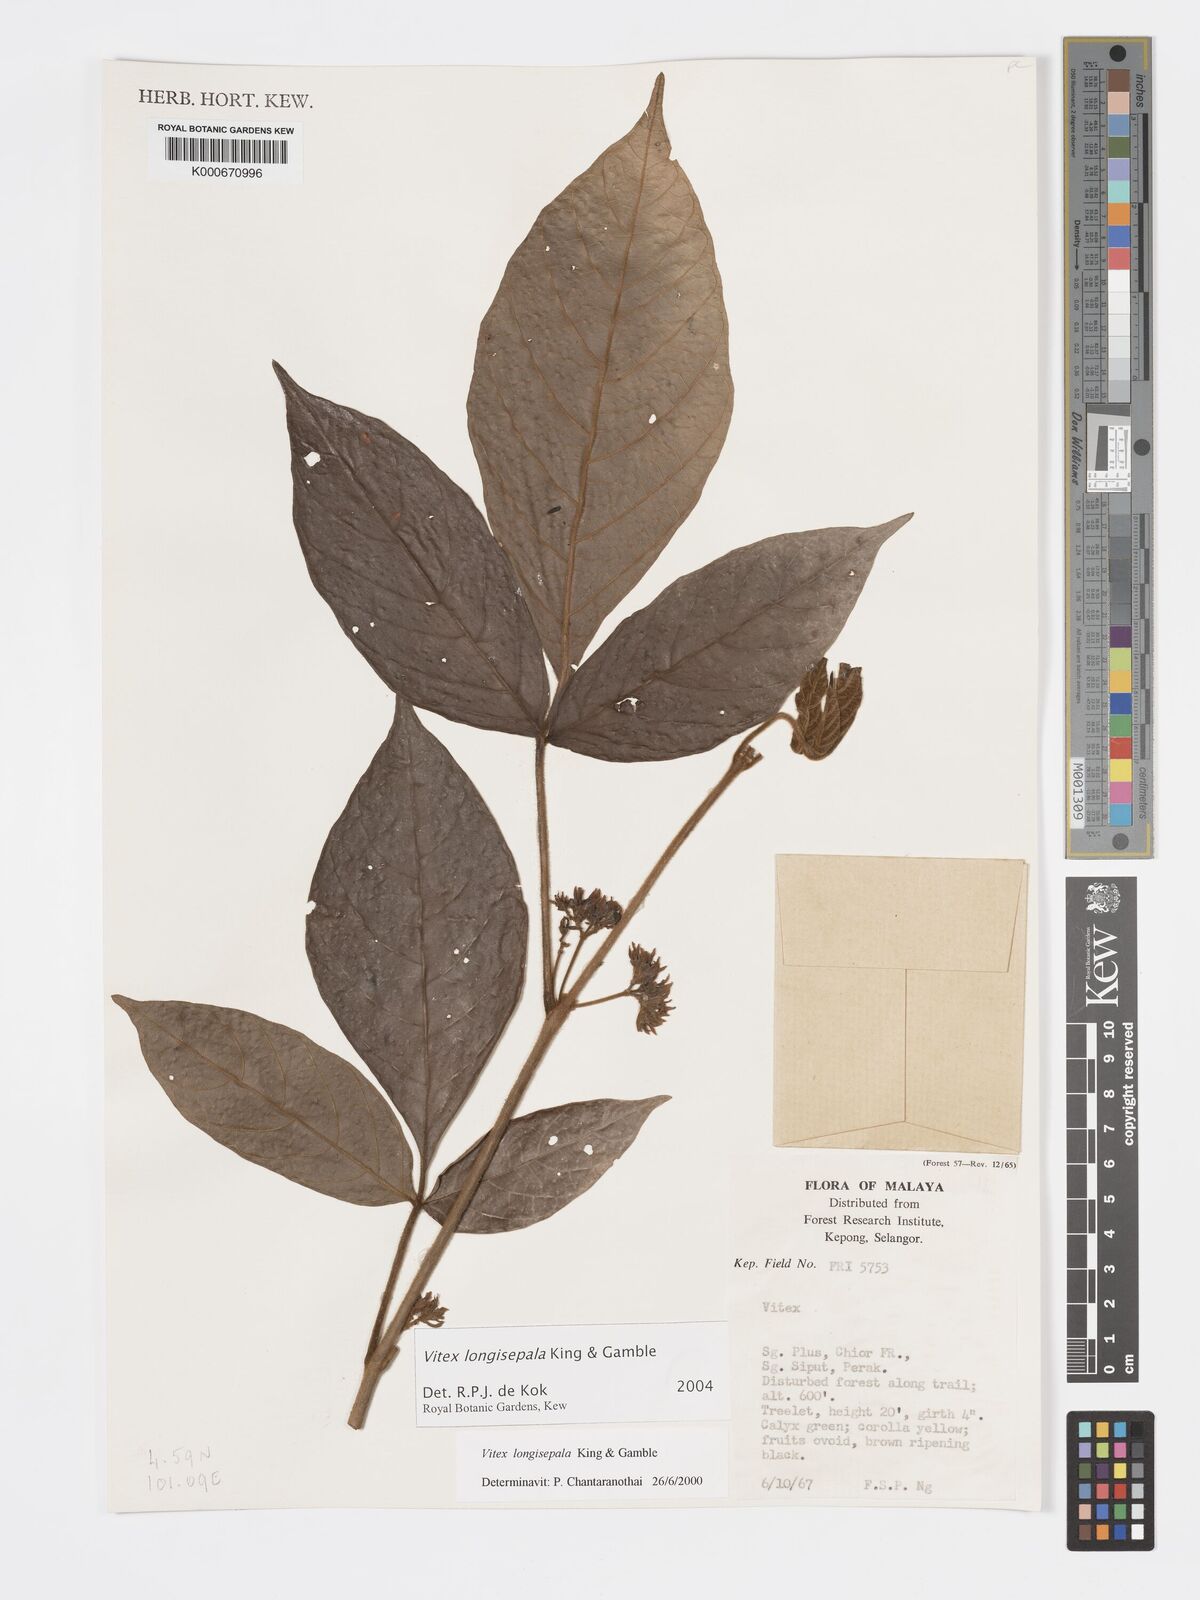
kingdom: Plantae
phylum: Tracheophyta
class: Magnoliopsida
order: Lamiales
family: Lamiaceae
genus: Vitex
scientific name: Vitex longisepala
